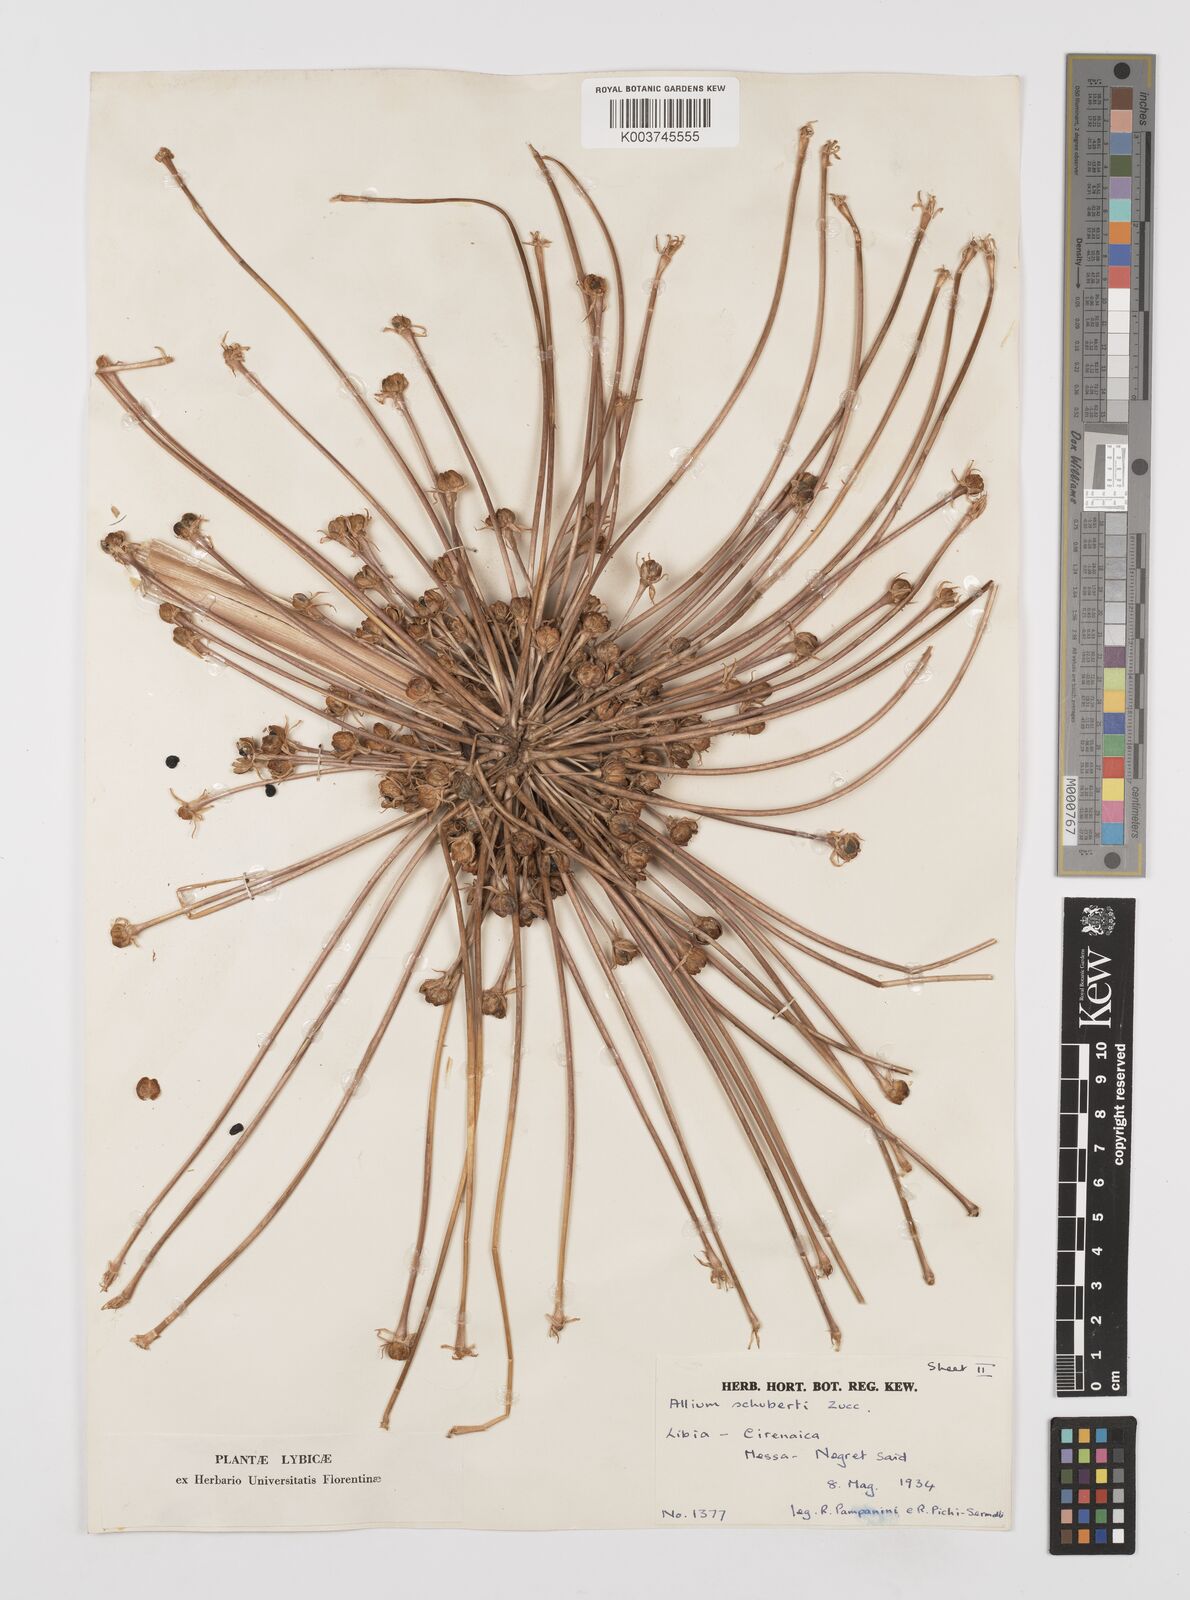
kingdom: Plantae
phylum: Tracheophyta
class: Liliopsida
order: Asparagales
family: Amaryllidaceae
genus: Allium
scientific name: Allium schubertii
